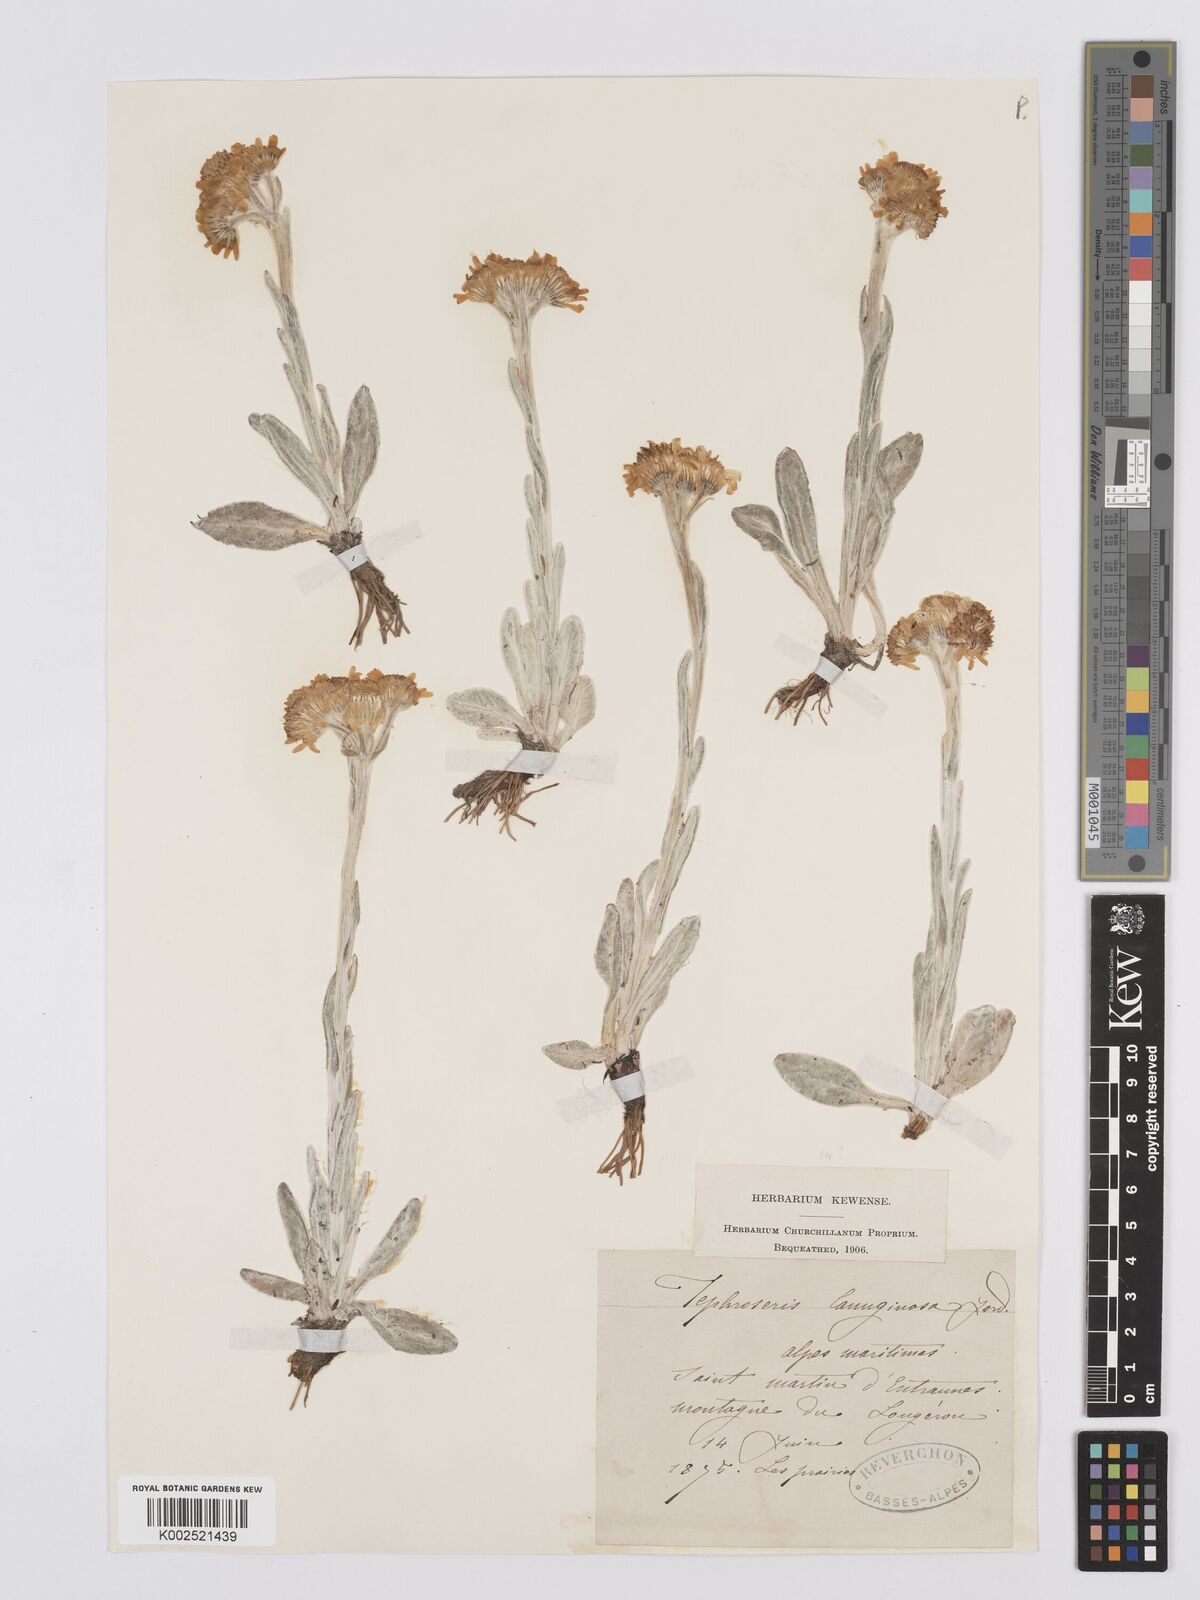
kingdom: Plantae
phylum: Tracheophyta
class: Magnoliopsida
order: Asterales
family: Asteraceae
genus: Tephroseris
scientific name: Tephroseris integrifolia
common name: Field fleawort
